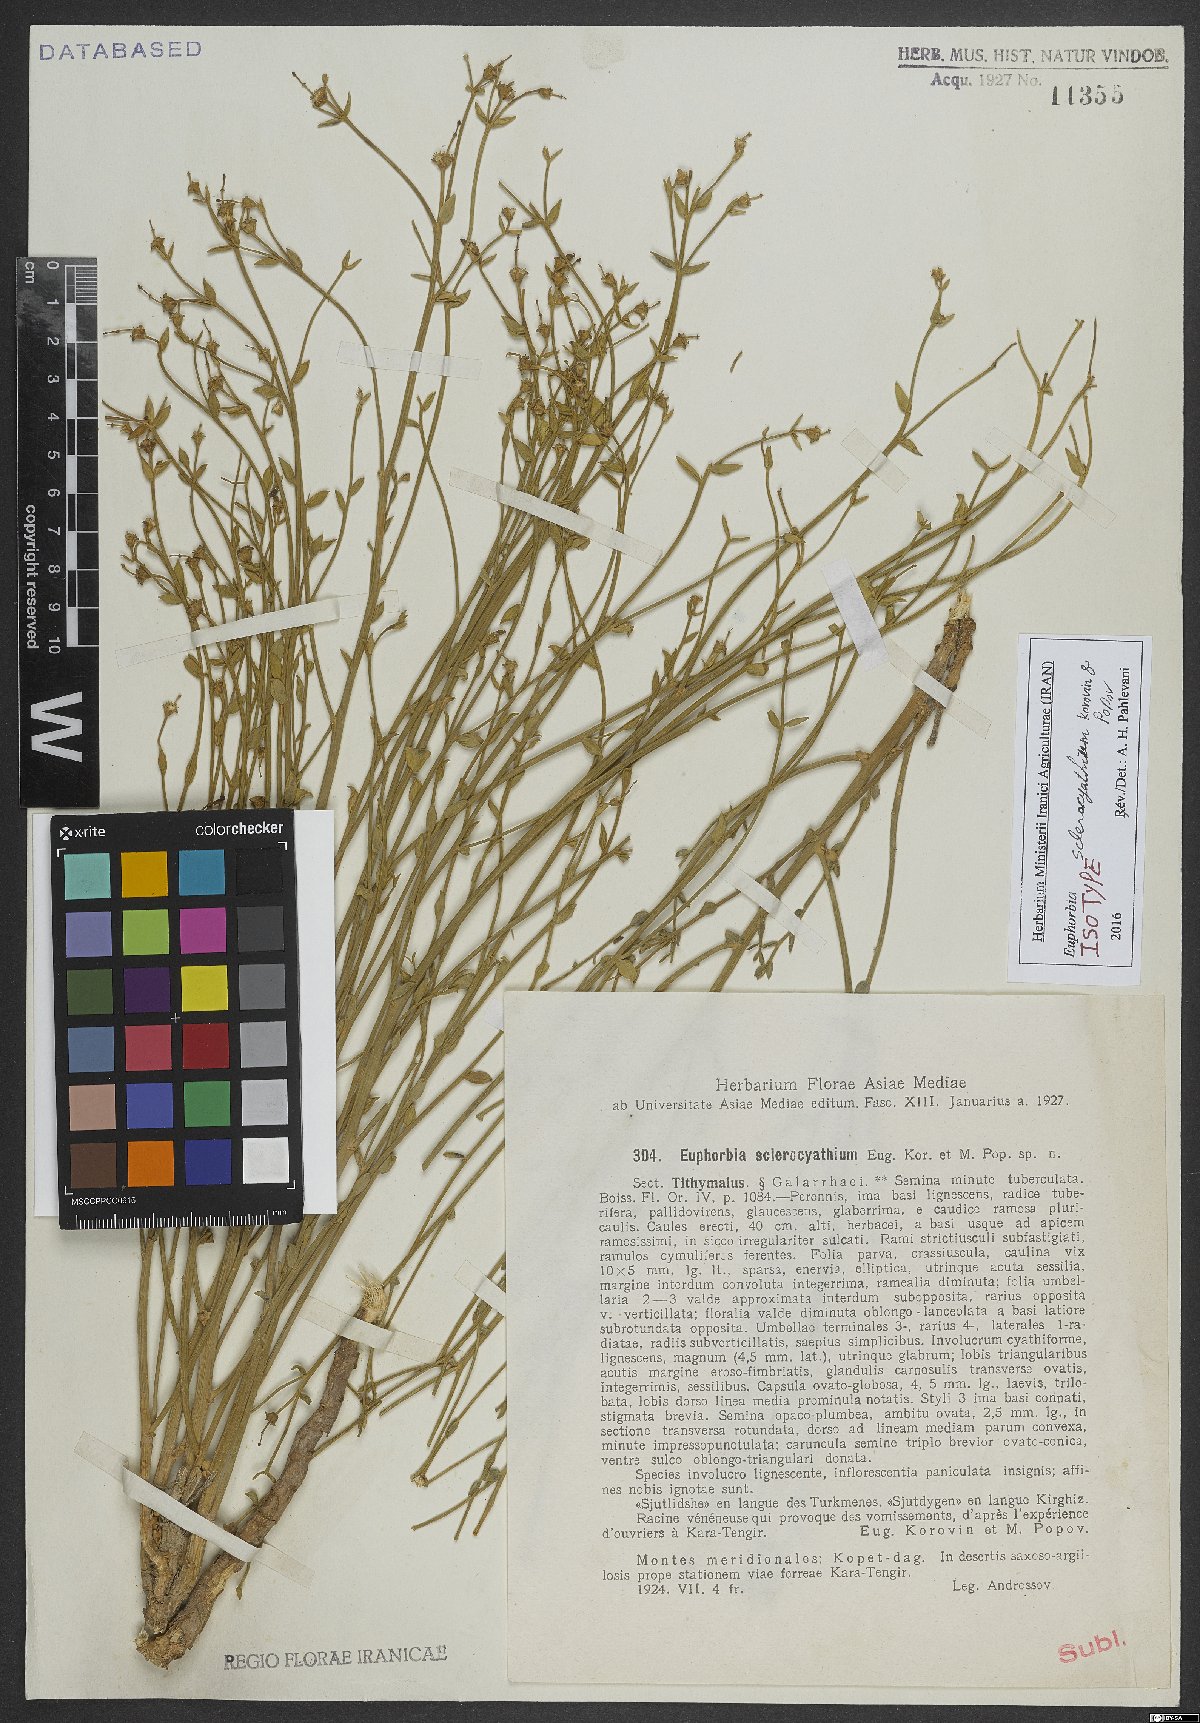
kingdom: Plantae
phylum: Tracheophyta
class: Magnoliopsida
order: Malpighiales
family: Euphorbiaceae
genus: Euphorbia
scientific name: Euphorbia sclerocyathium
